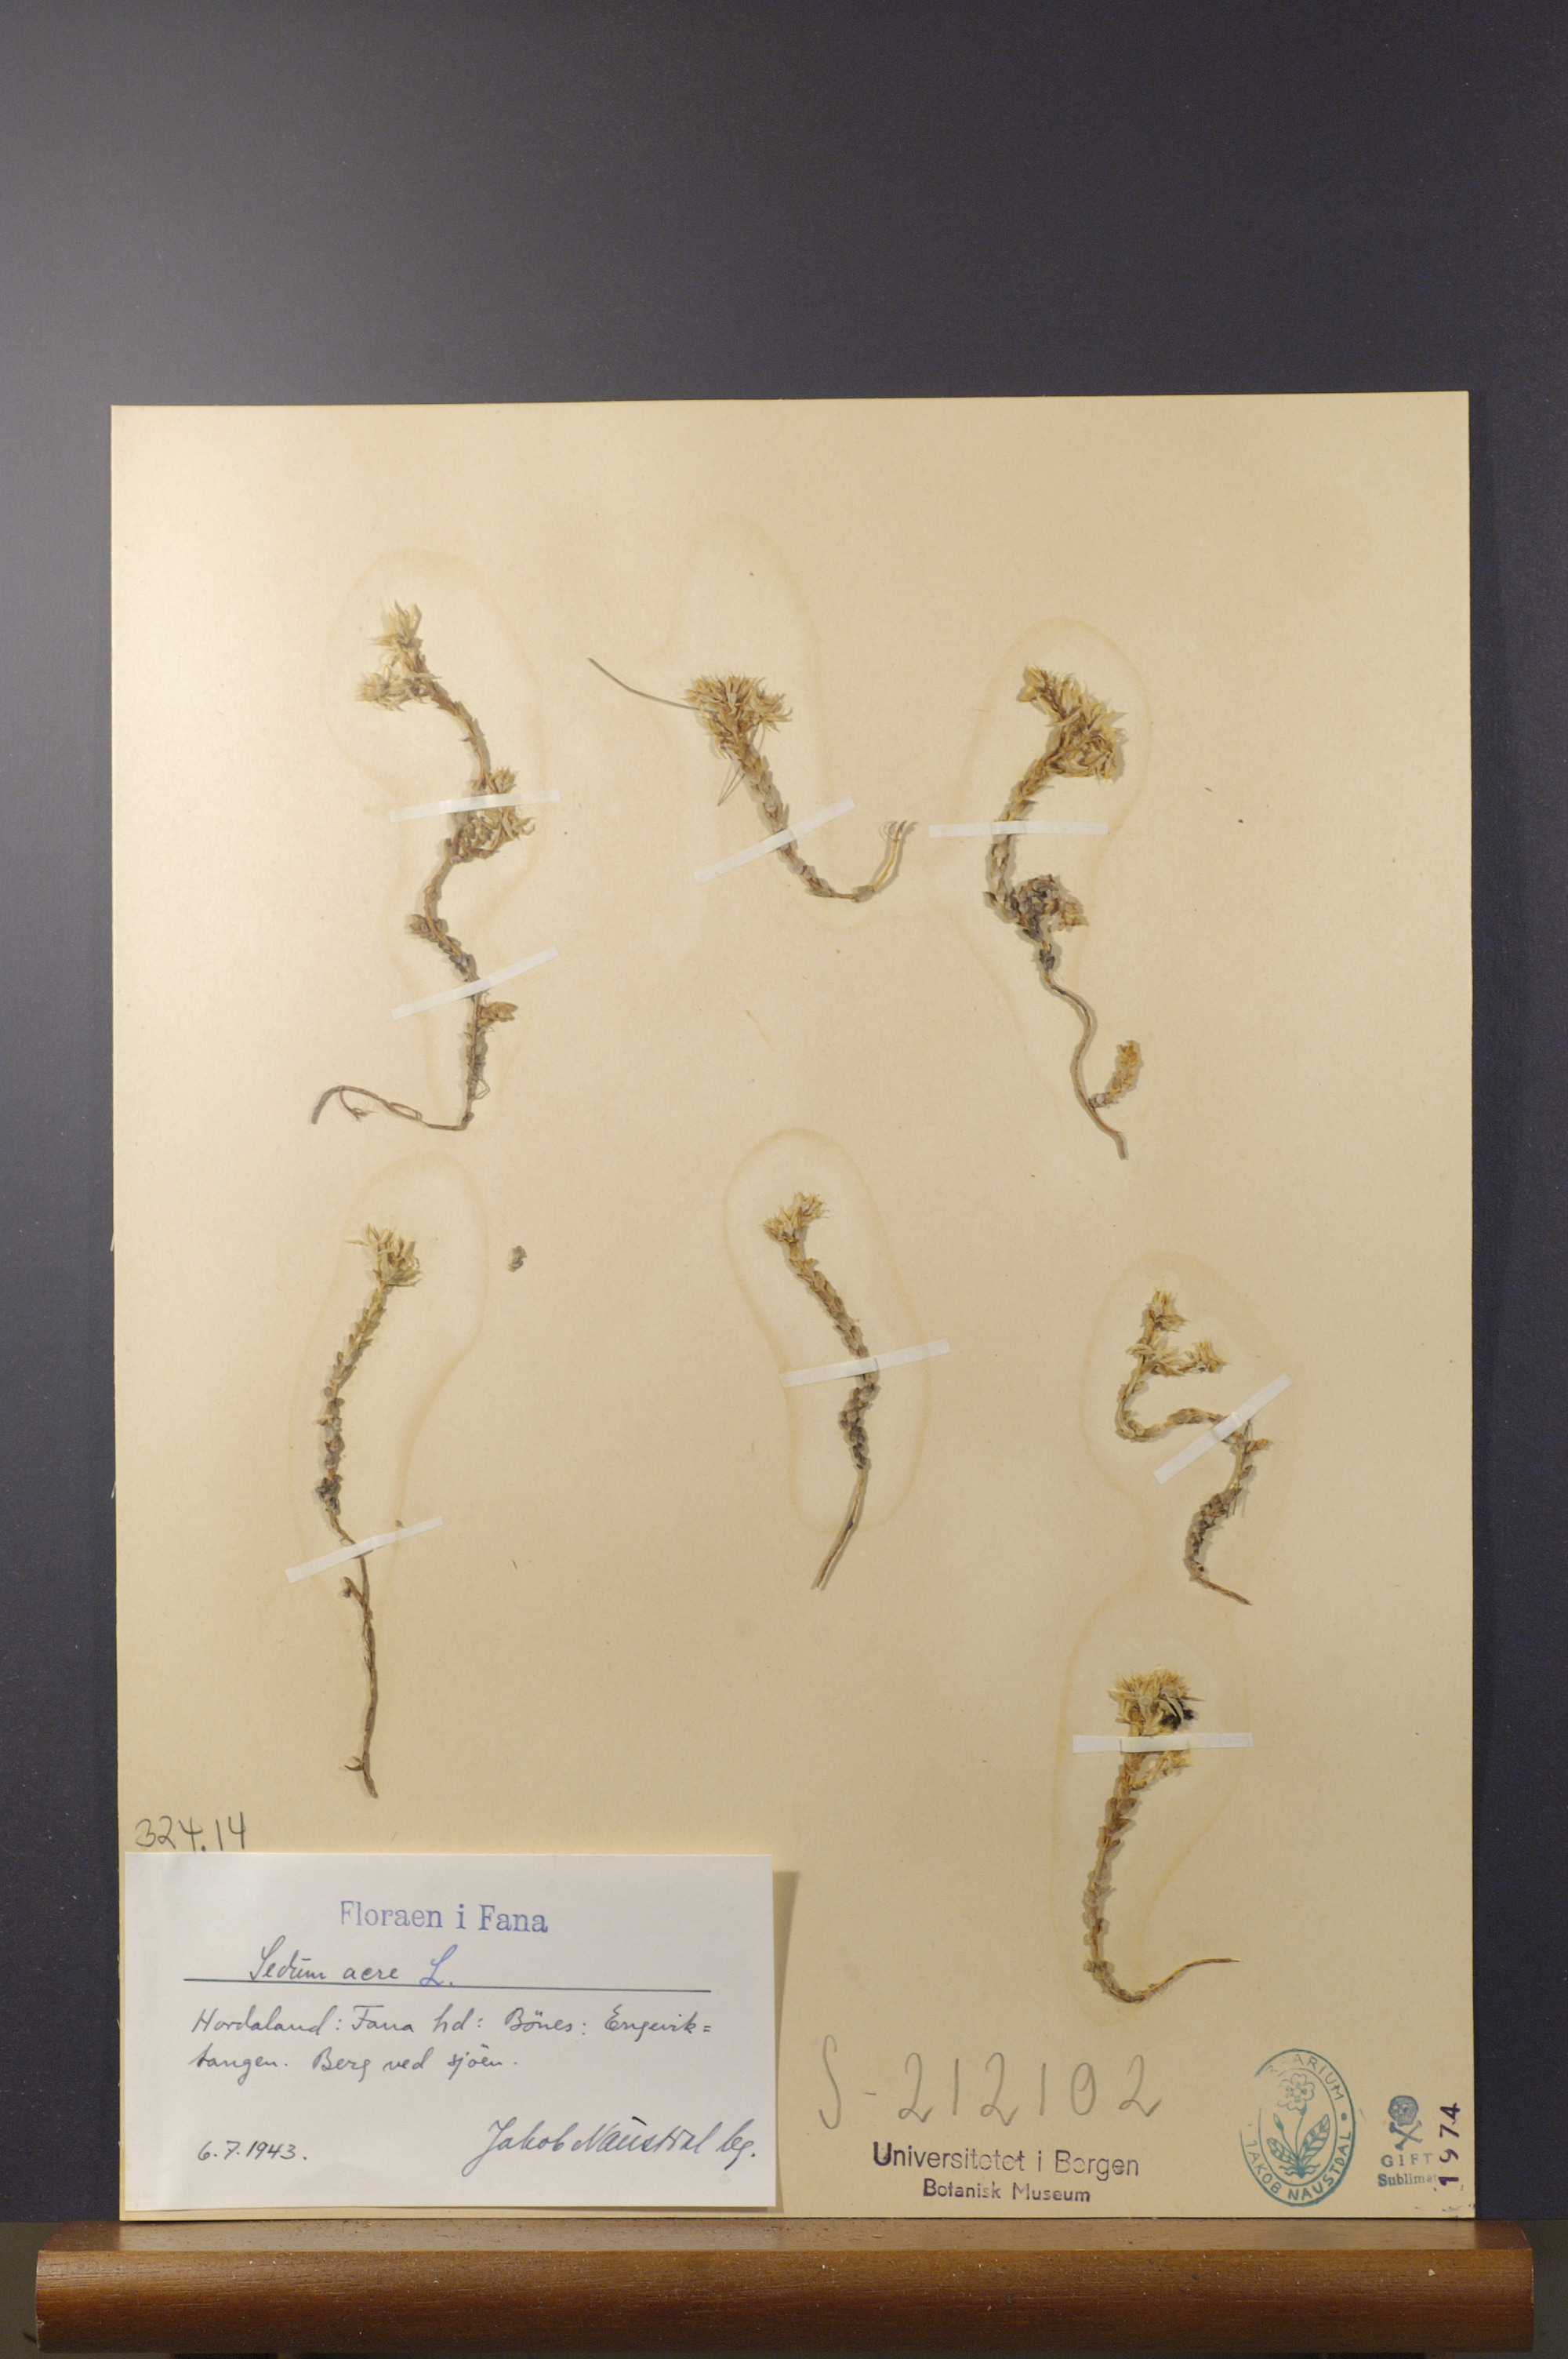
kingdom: Plantae
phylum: Tracheophyta
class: Magnoliopsida
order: Saxifragales
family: Crassulaceae
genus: Sedum
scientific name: Sedum acre
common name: Biting stonecrop
